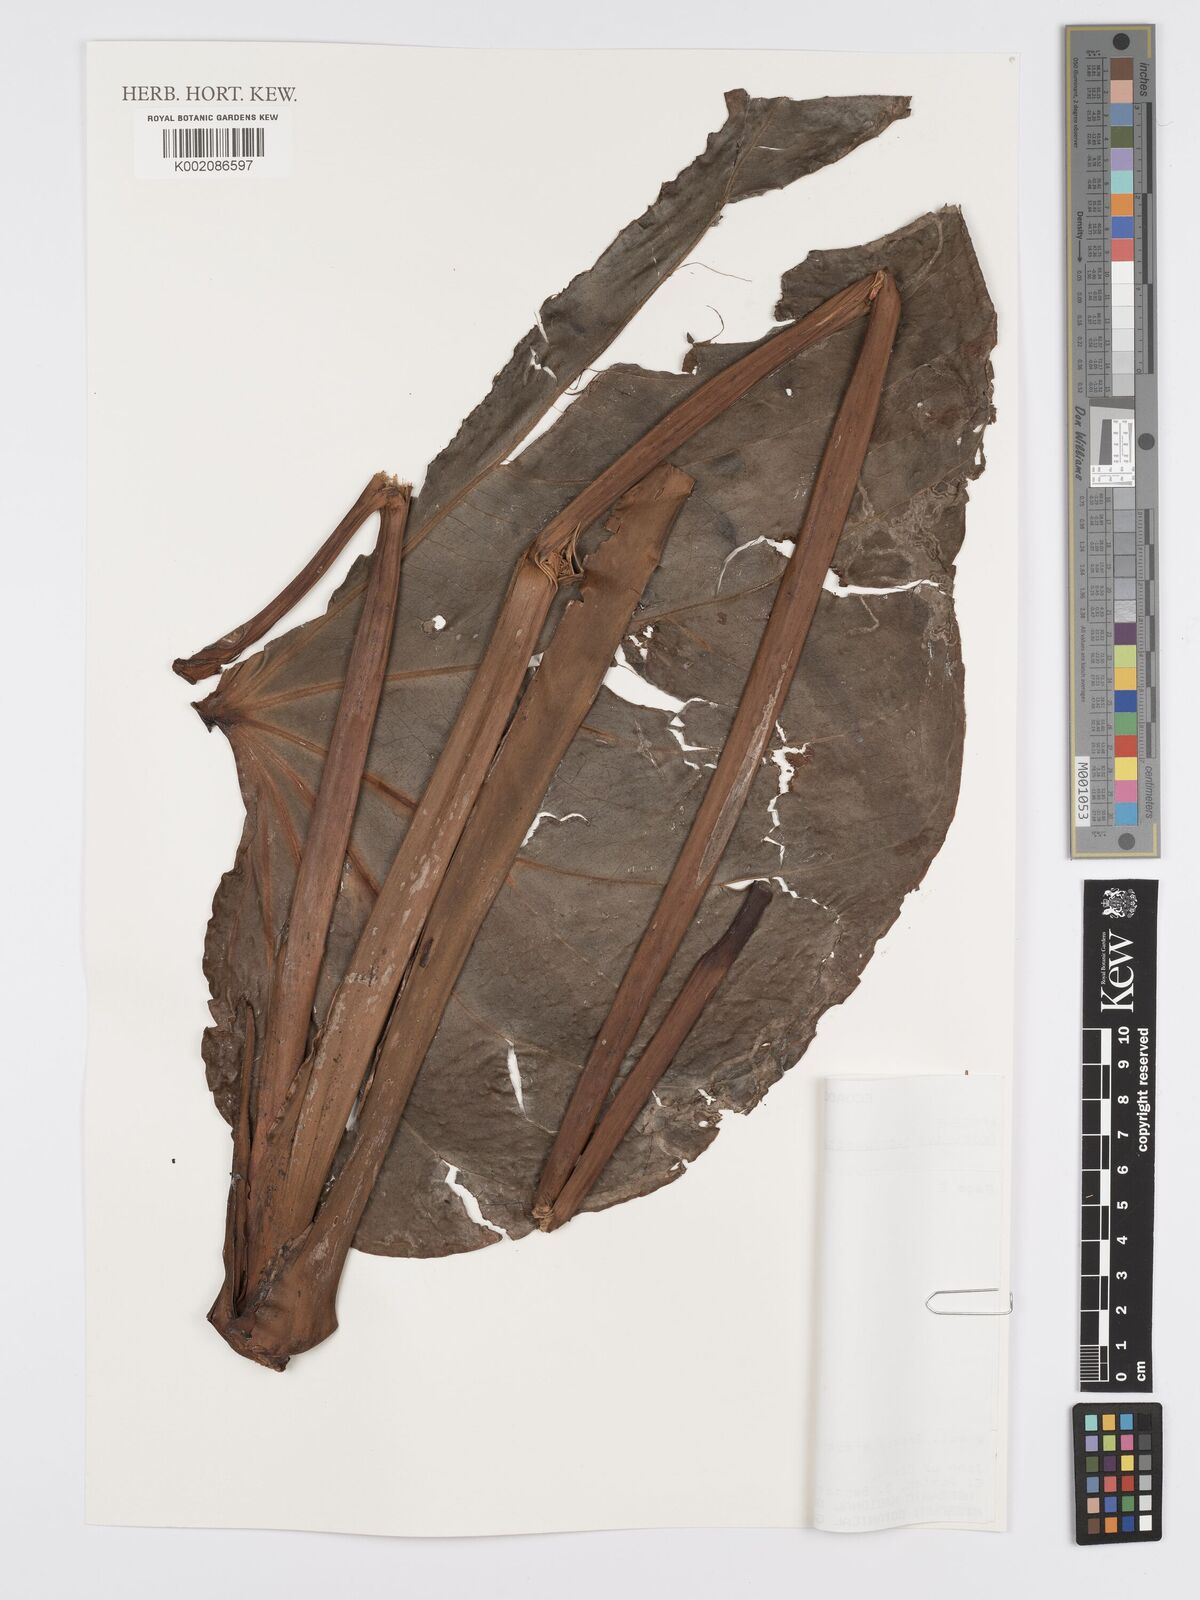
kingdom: Plantae
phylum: Tracheophyta
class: Liliopsida
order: Alismatales
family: Araceae
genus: Anthurium
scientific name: Anthurium nigropunctatum
